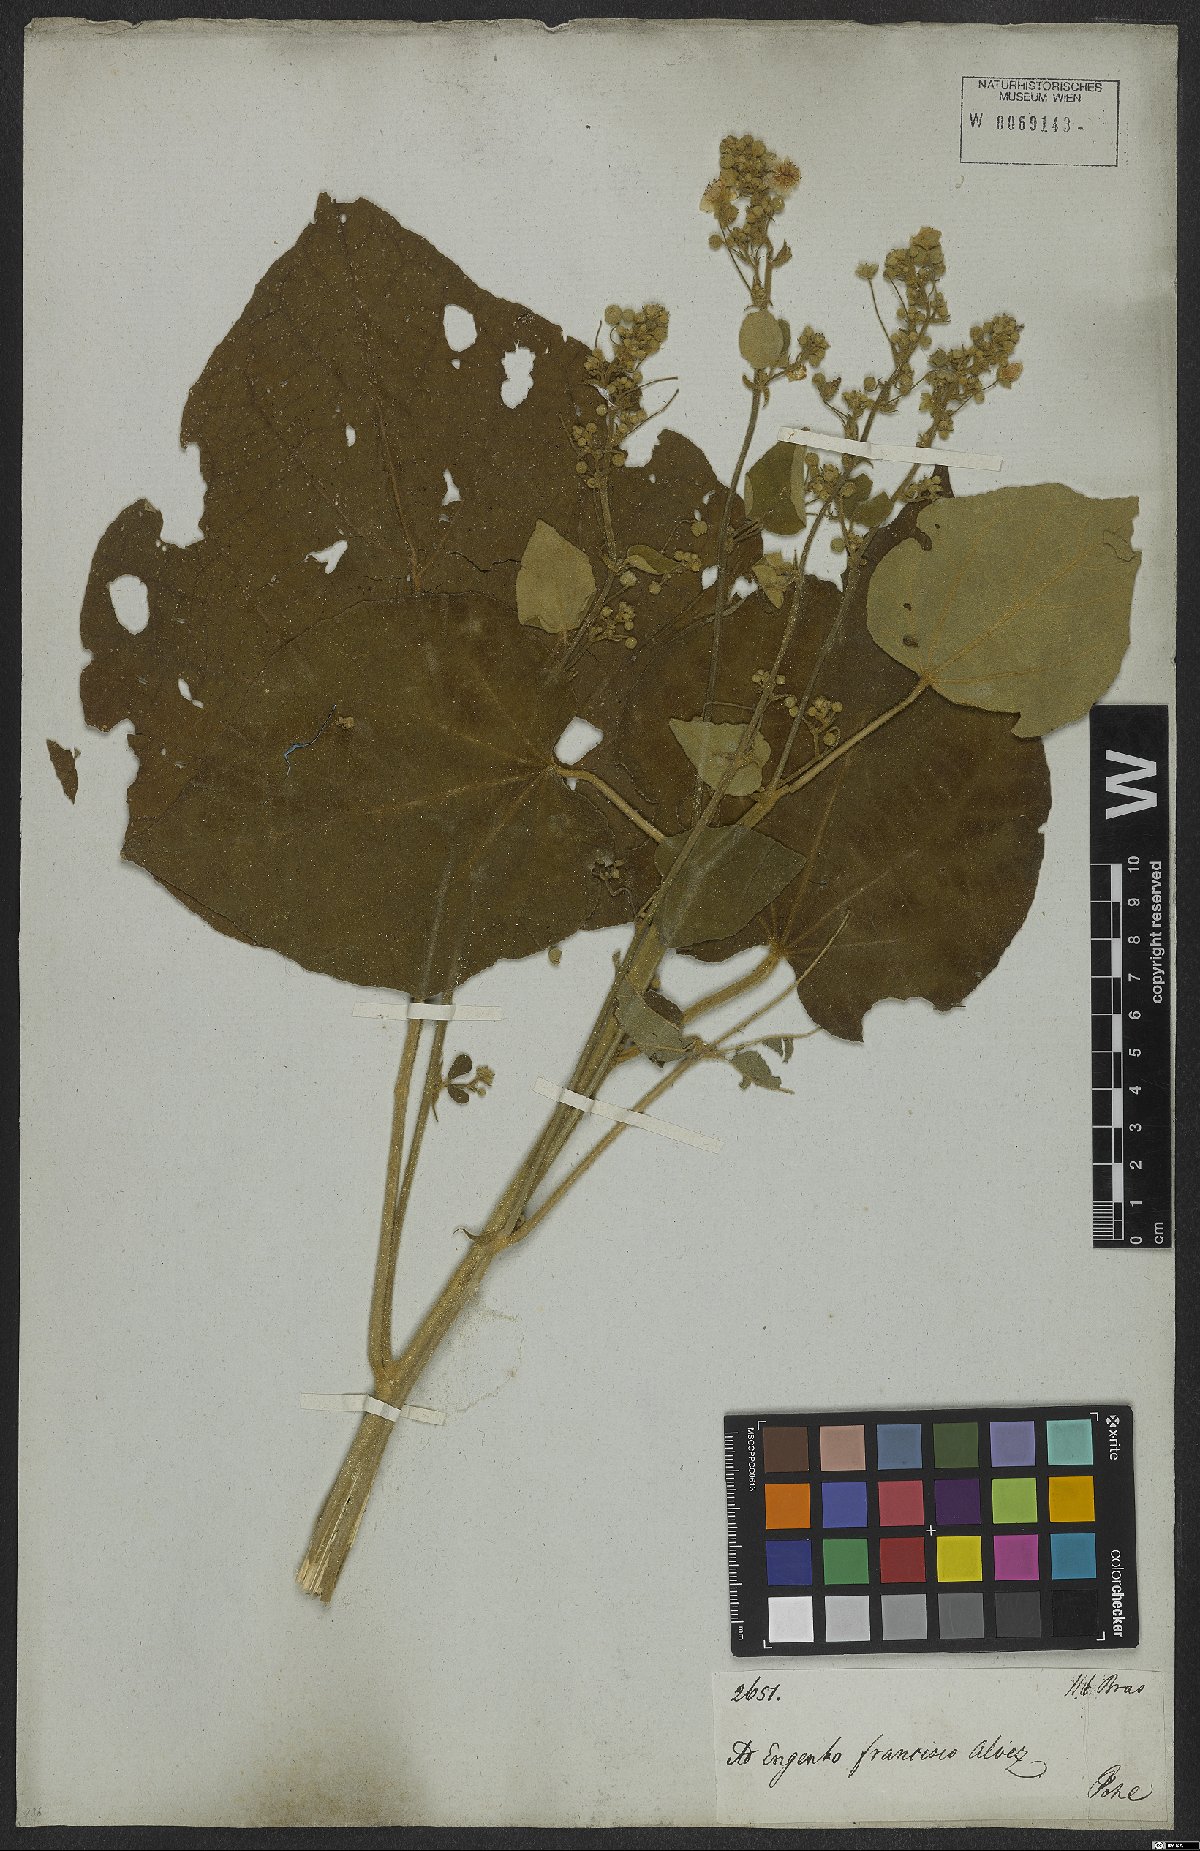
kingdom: Plantae
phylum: Tracheophyta
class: Magnoliopsida
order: Malvales
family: Malvaceae
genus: Abutilon
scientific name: Abutilon
